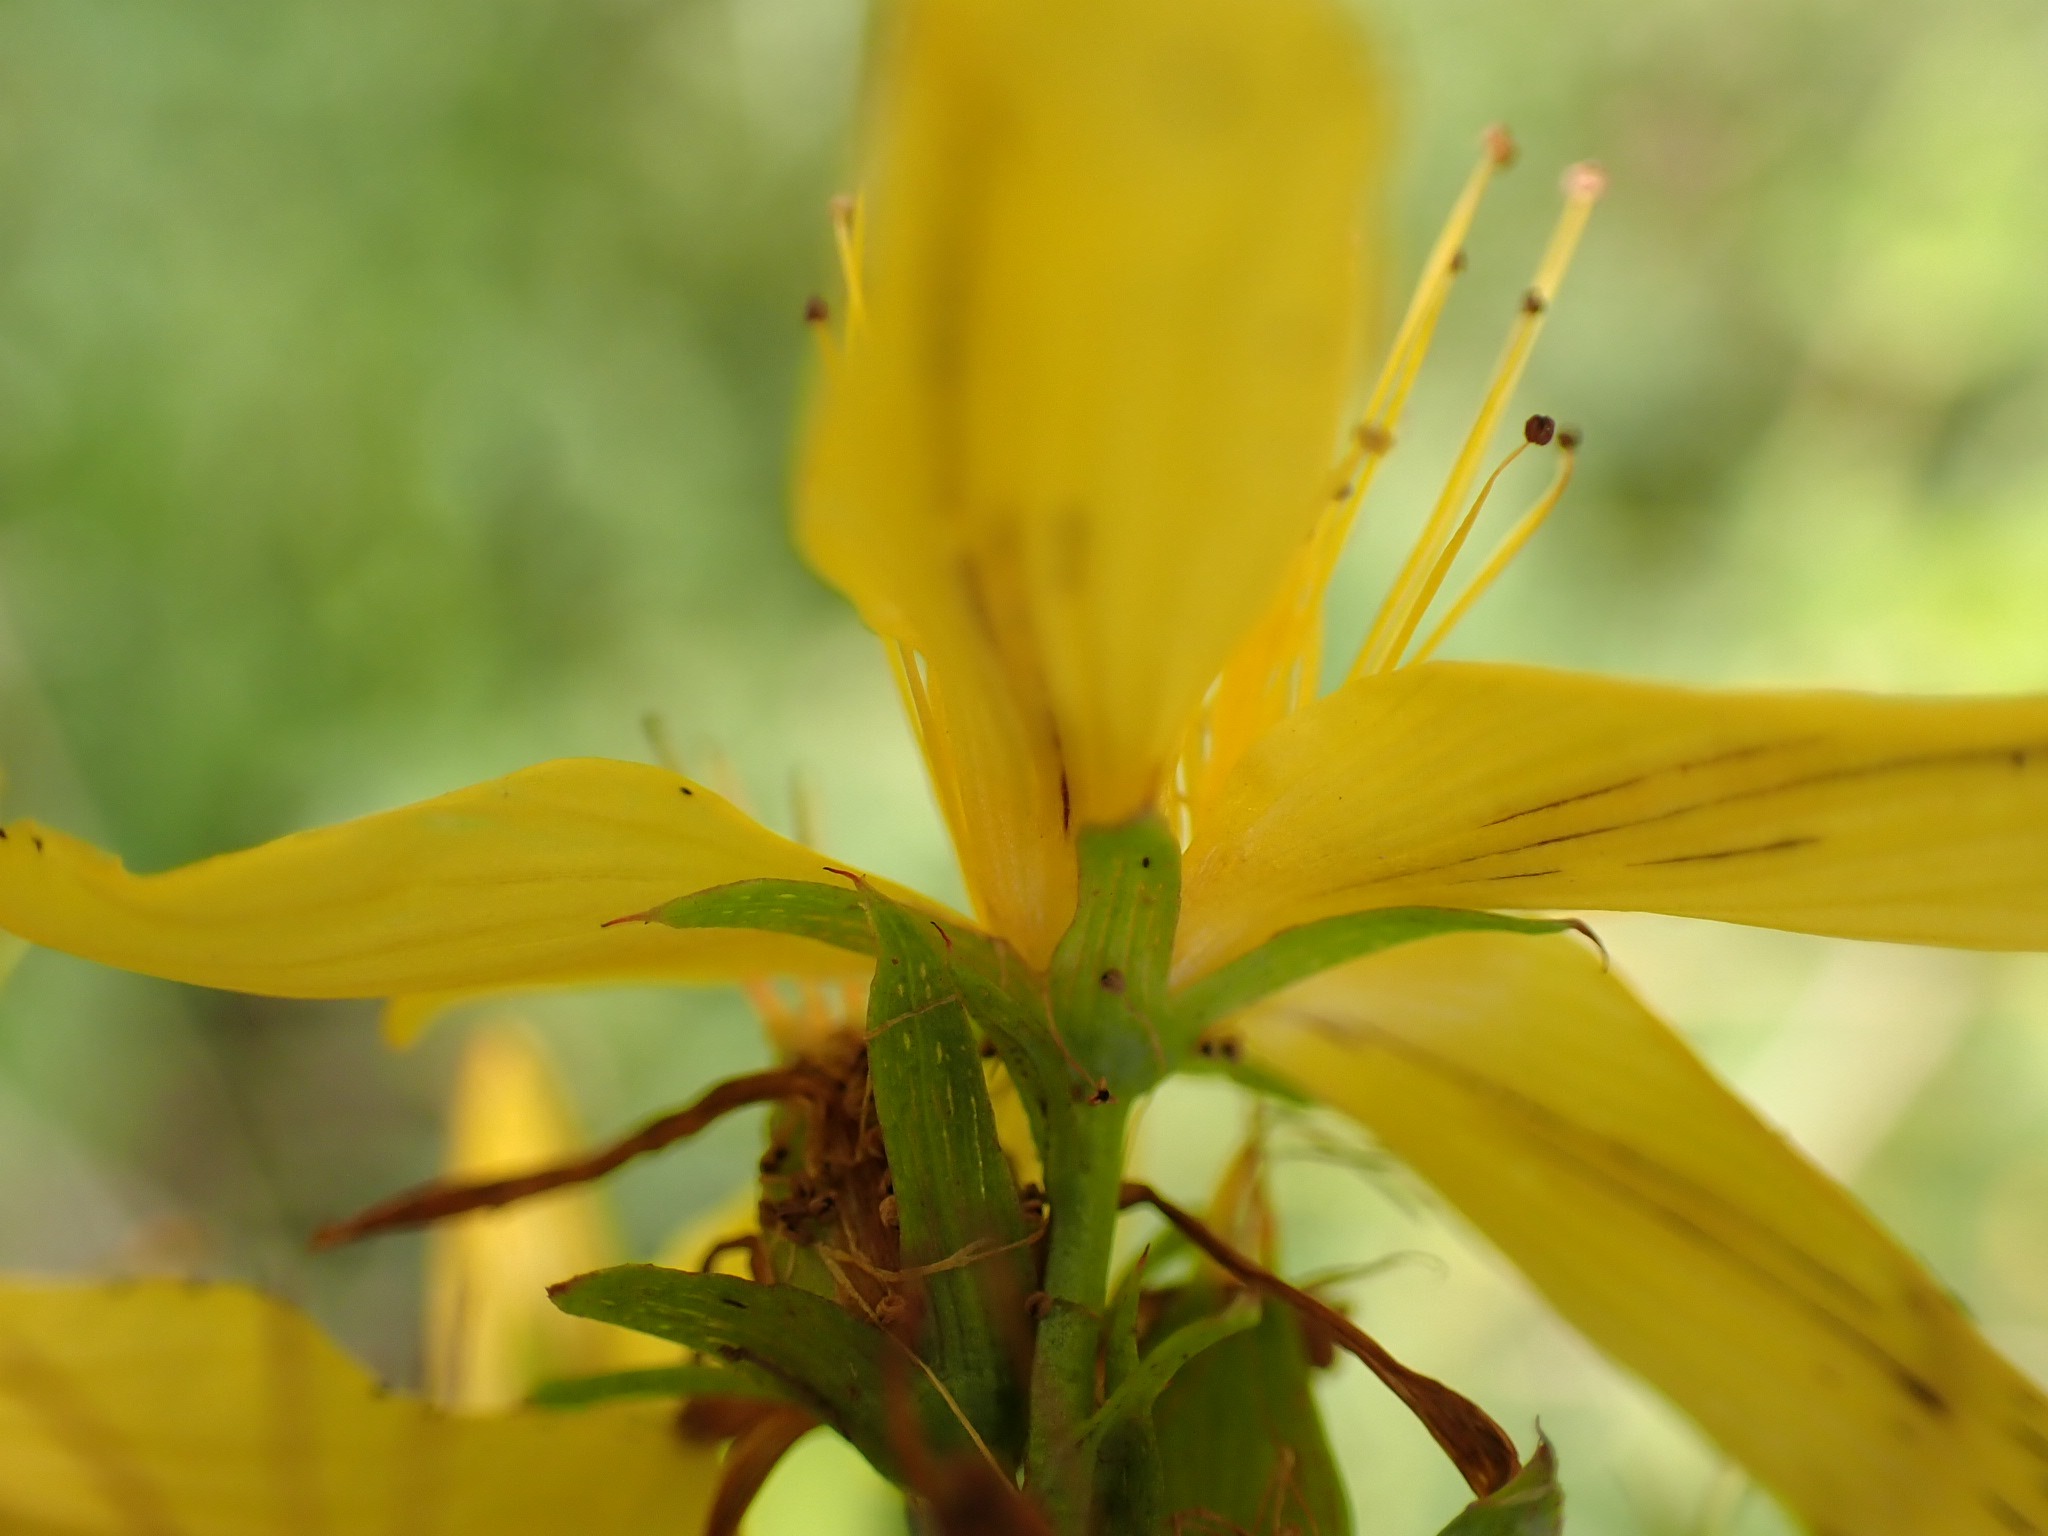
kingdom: Plantae
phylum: Tracheophyta
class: Magnoliopsida
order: Malpighiales
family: Hypericaceae
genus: Hypericum
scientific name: Hypericum perforatum
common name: Prikbladet perikon
